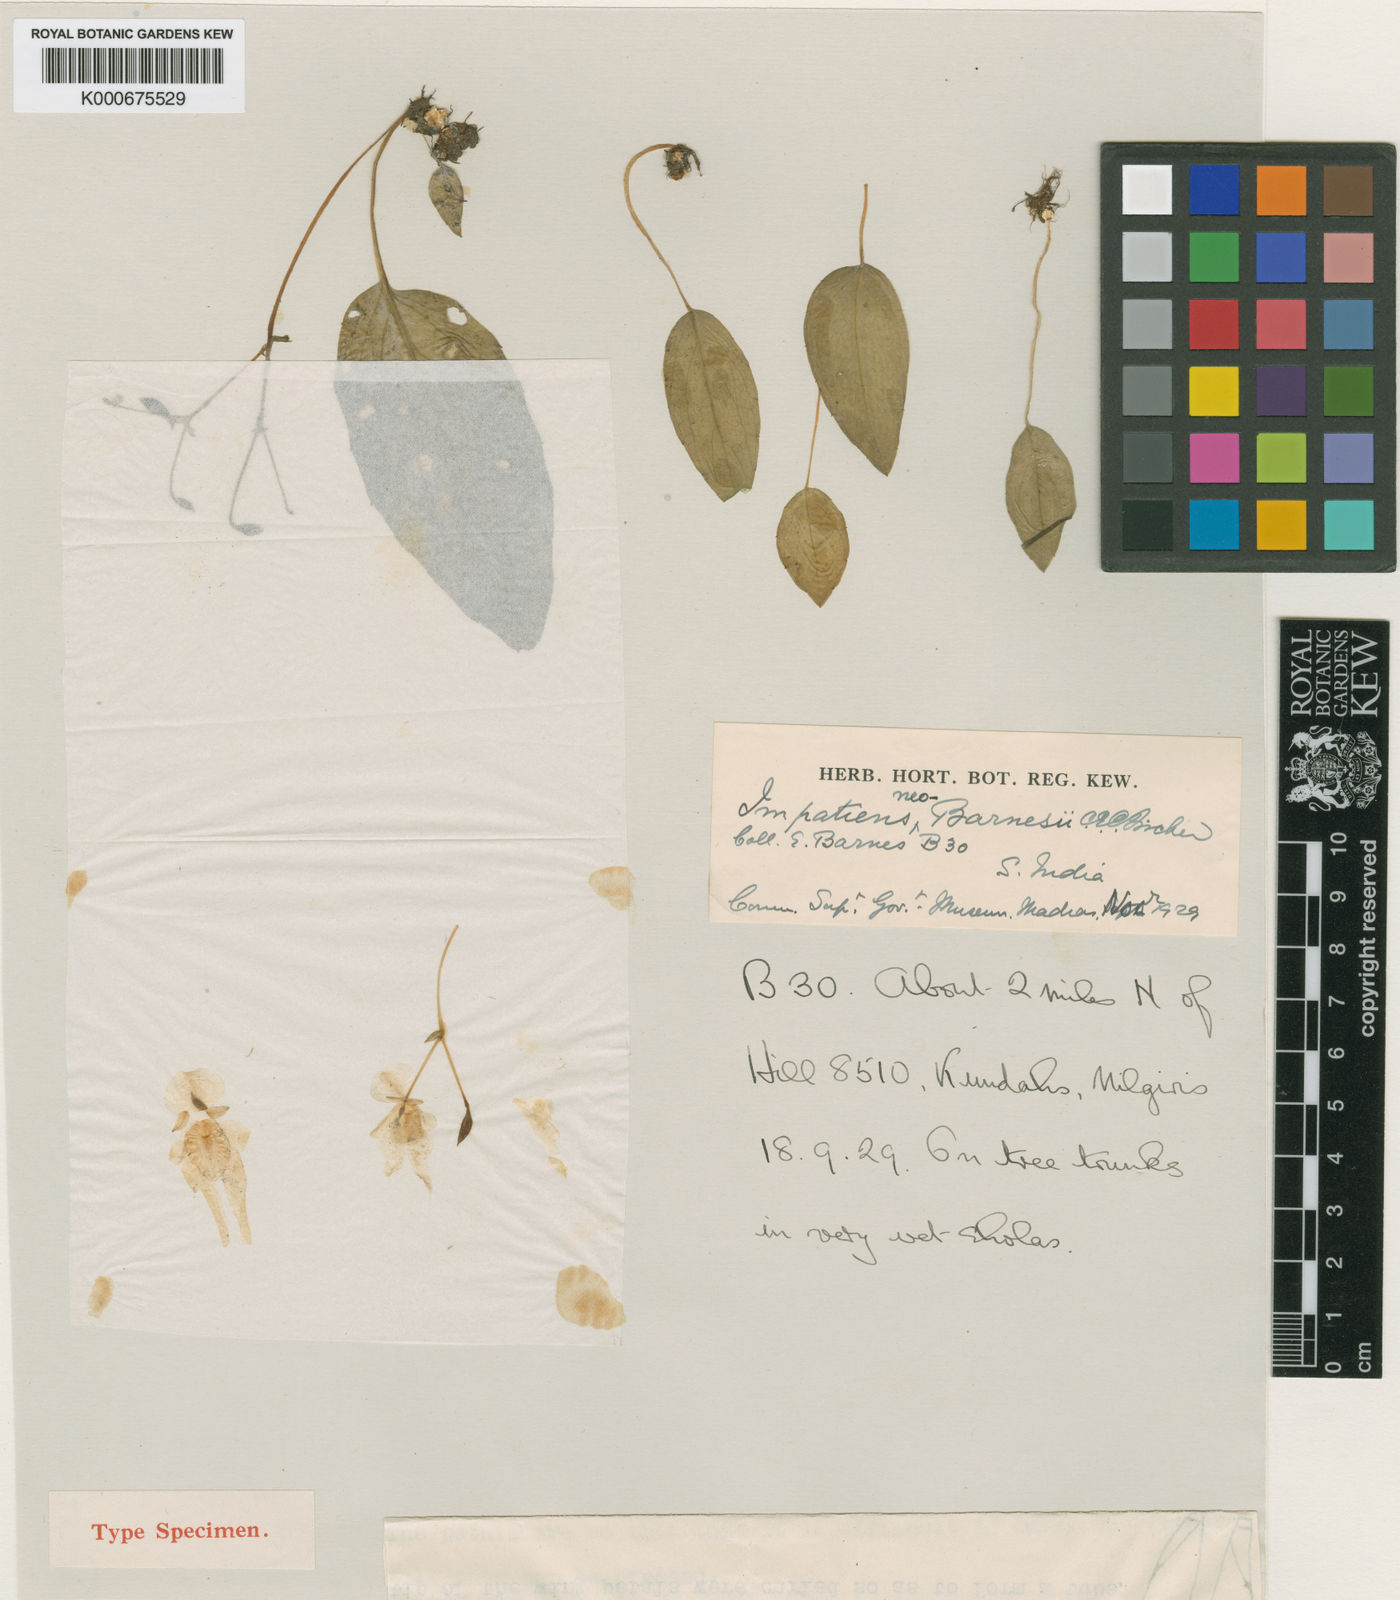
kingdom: Plantae
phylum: Tracheophyta
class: Magnoliopsida
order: Ericales
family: Balsaminaceae
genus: Impatiens
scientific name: Impatiens neobarnesii
